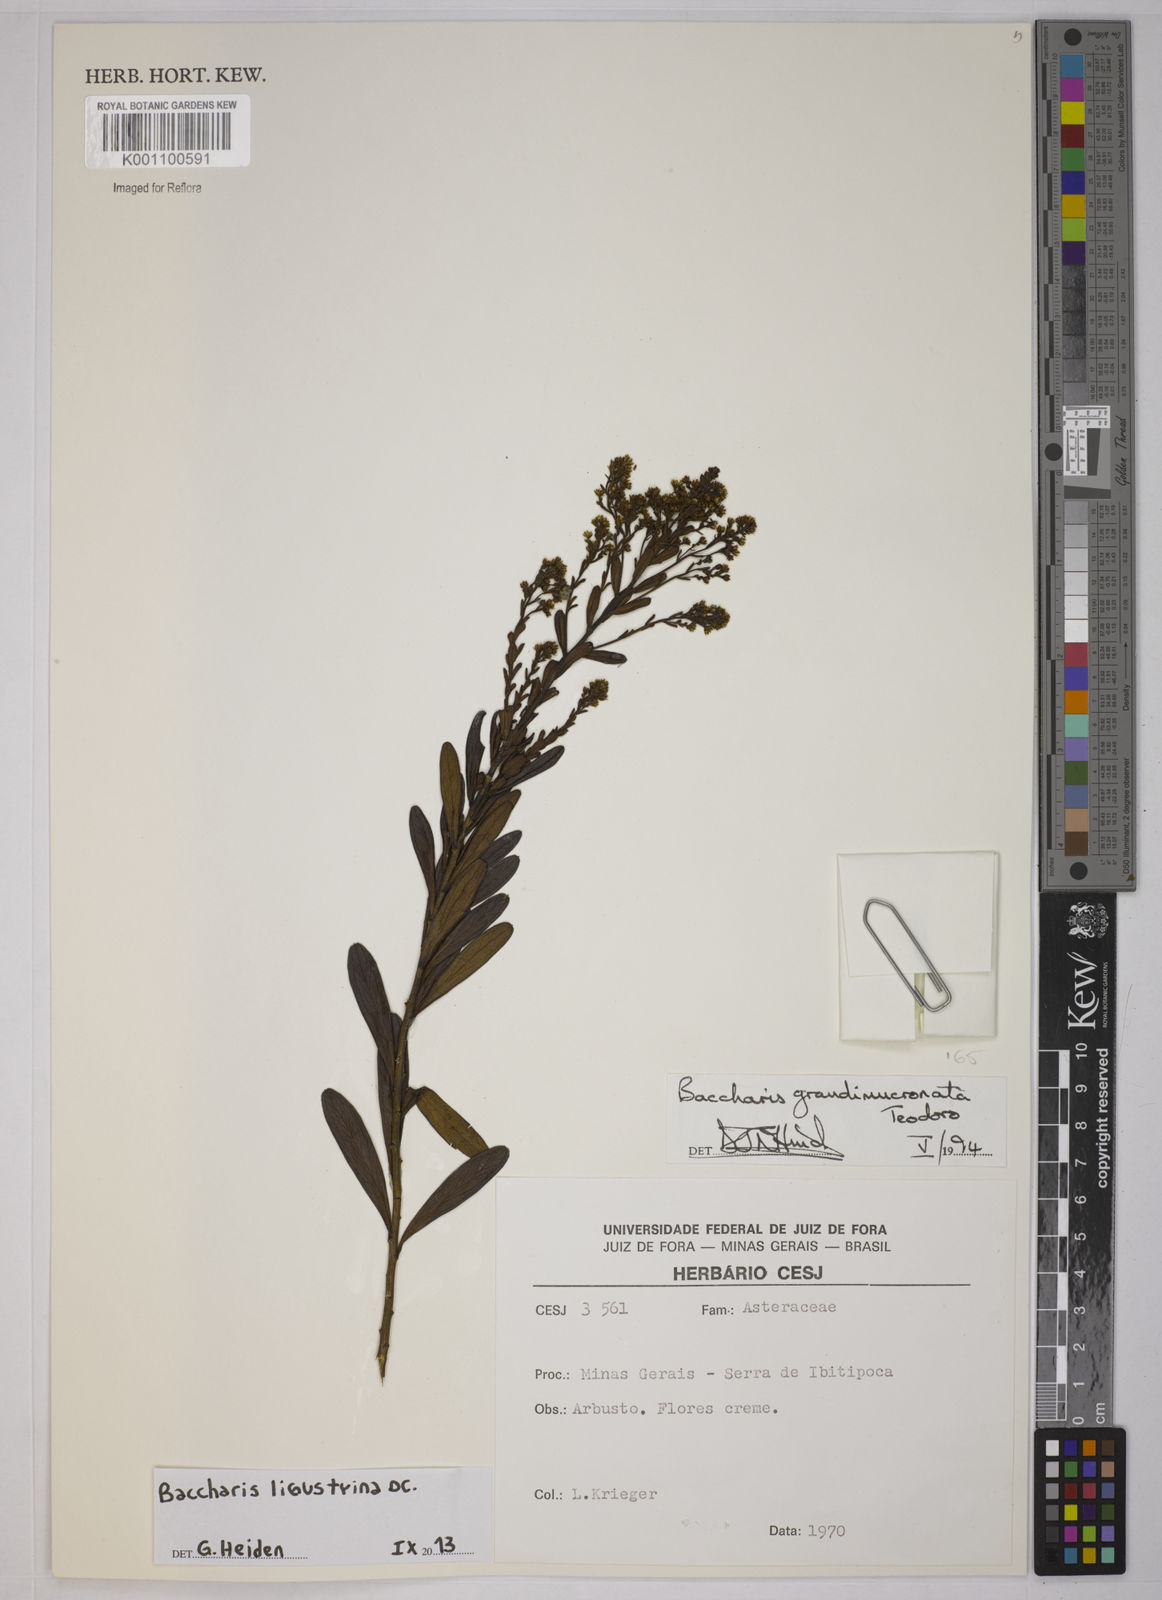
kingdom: Plantae
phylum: Tracheophyta
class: Magnoliopsida
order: Asterales
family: Asteraceae
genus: Baccharis
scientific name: Baccharis ligustrina
